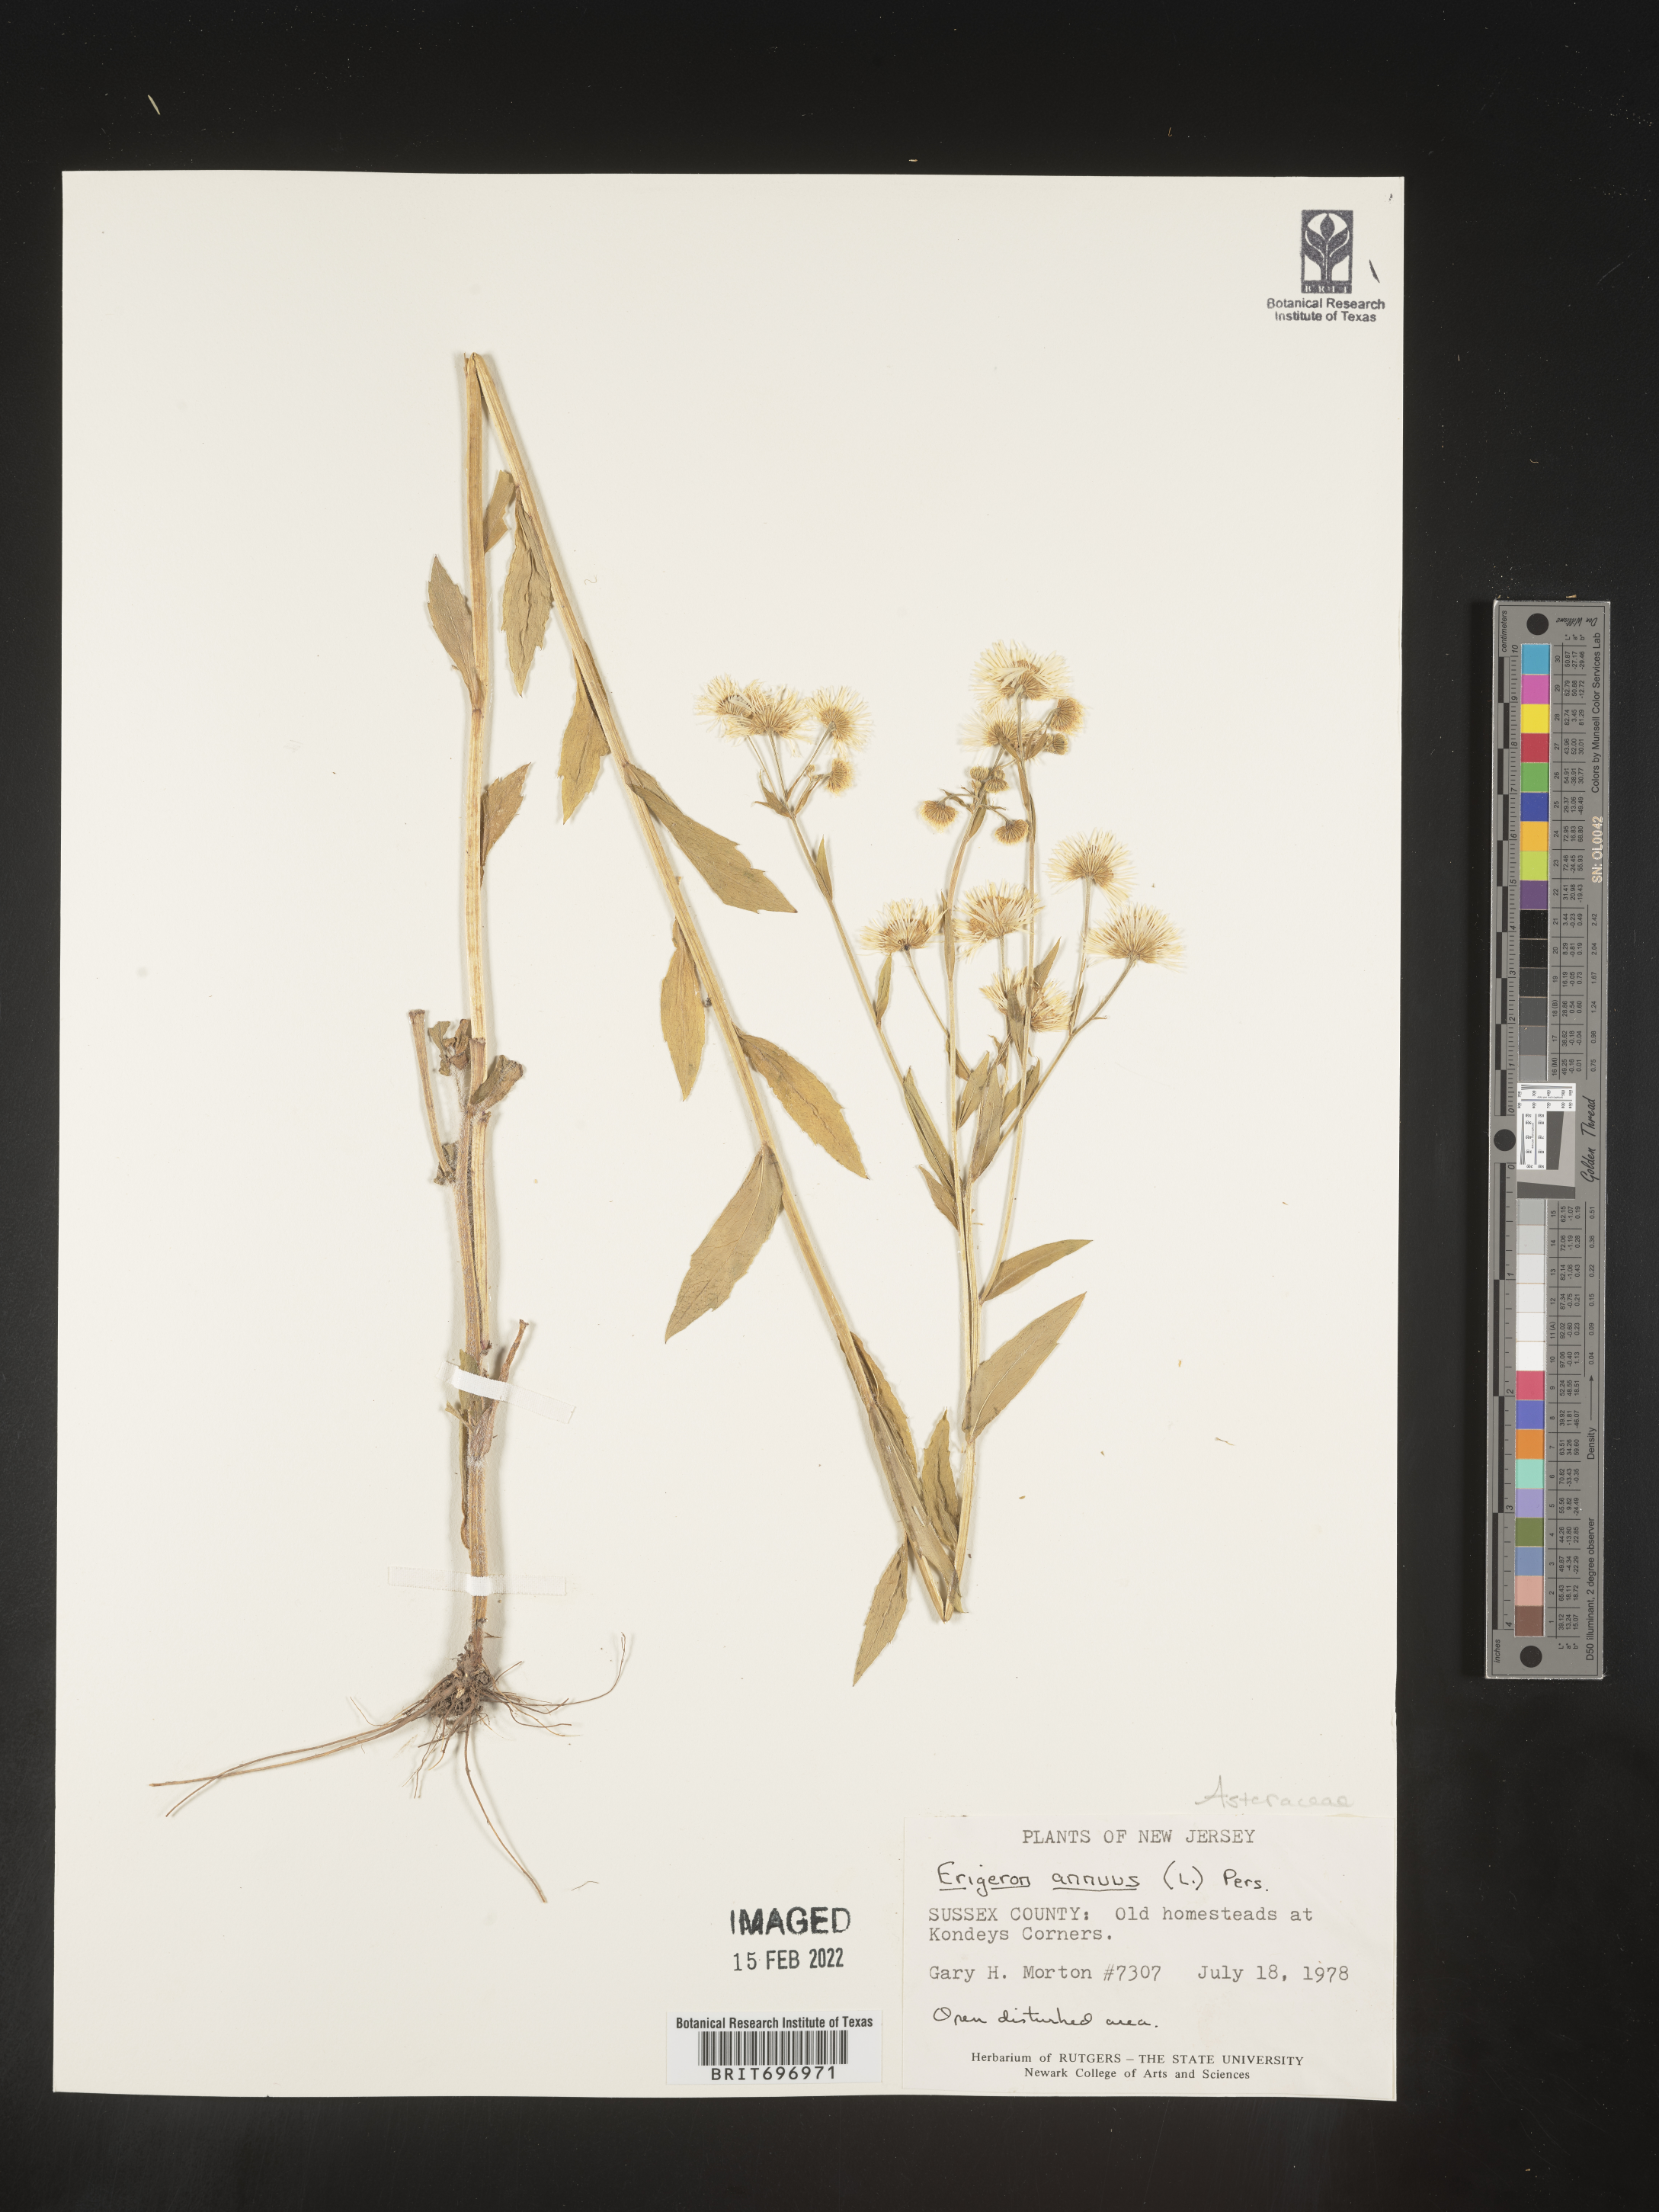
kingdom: Plantae
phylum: Tracheophyta
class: Magnoliopsida
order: Asterales
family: Asteraceae
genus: Erigeron
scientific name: Erigeron annuus
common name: Tall fleabane
